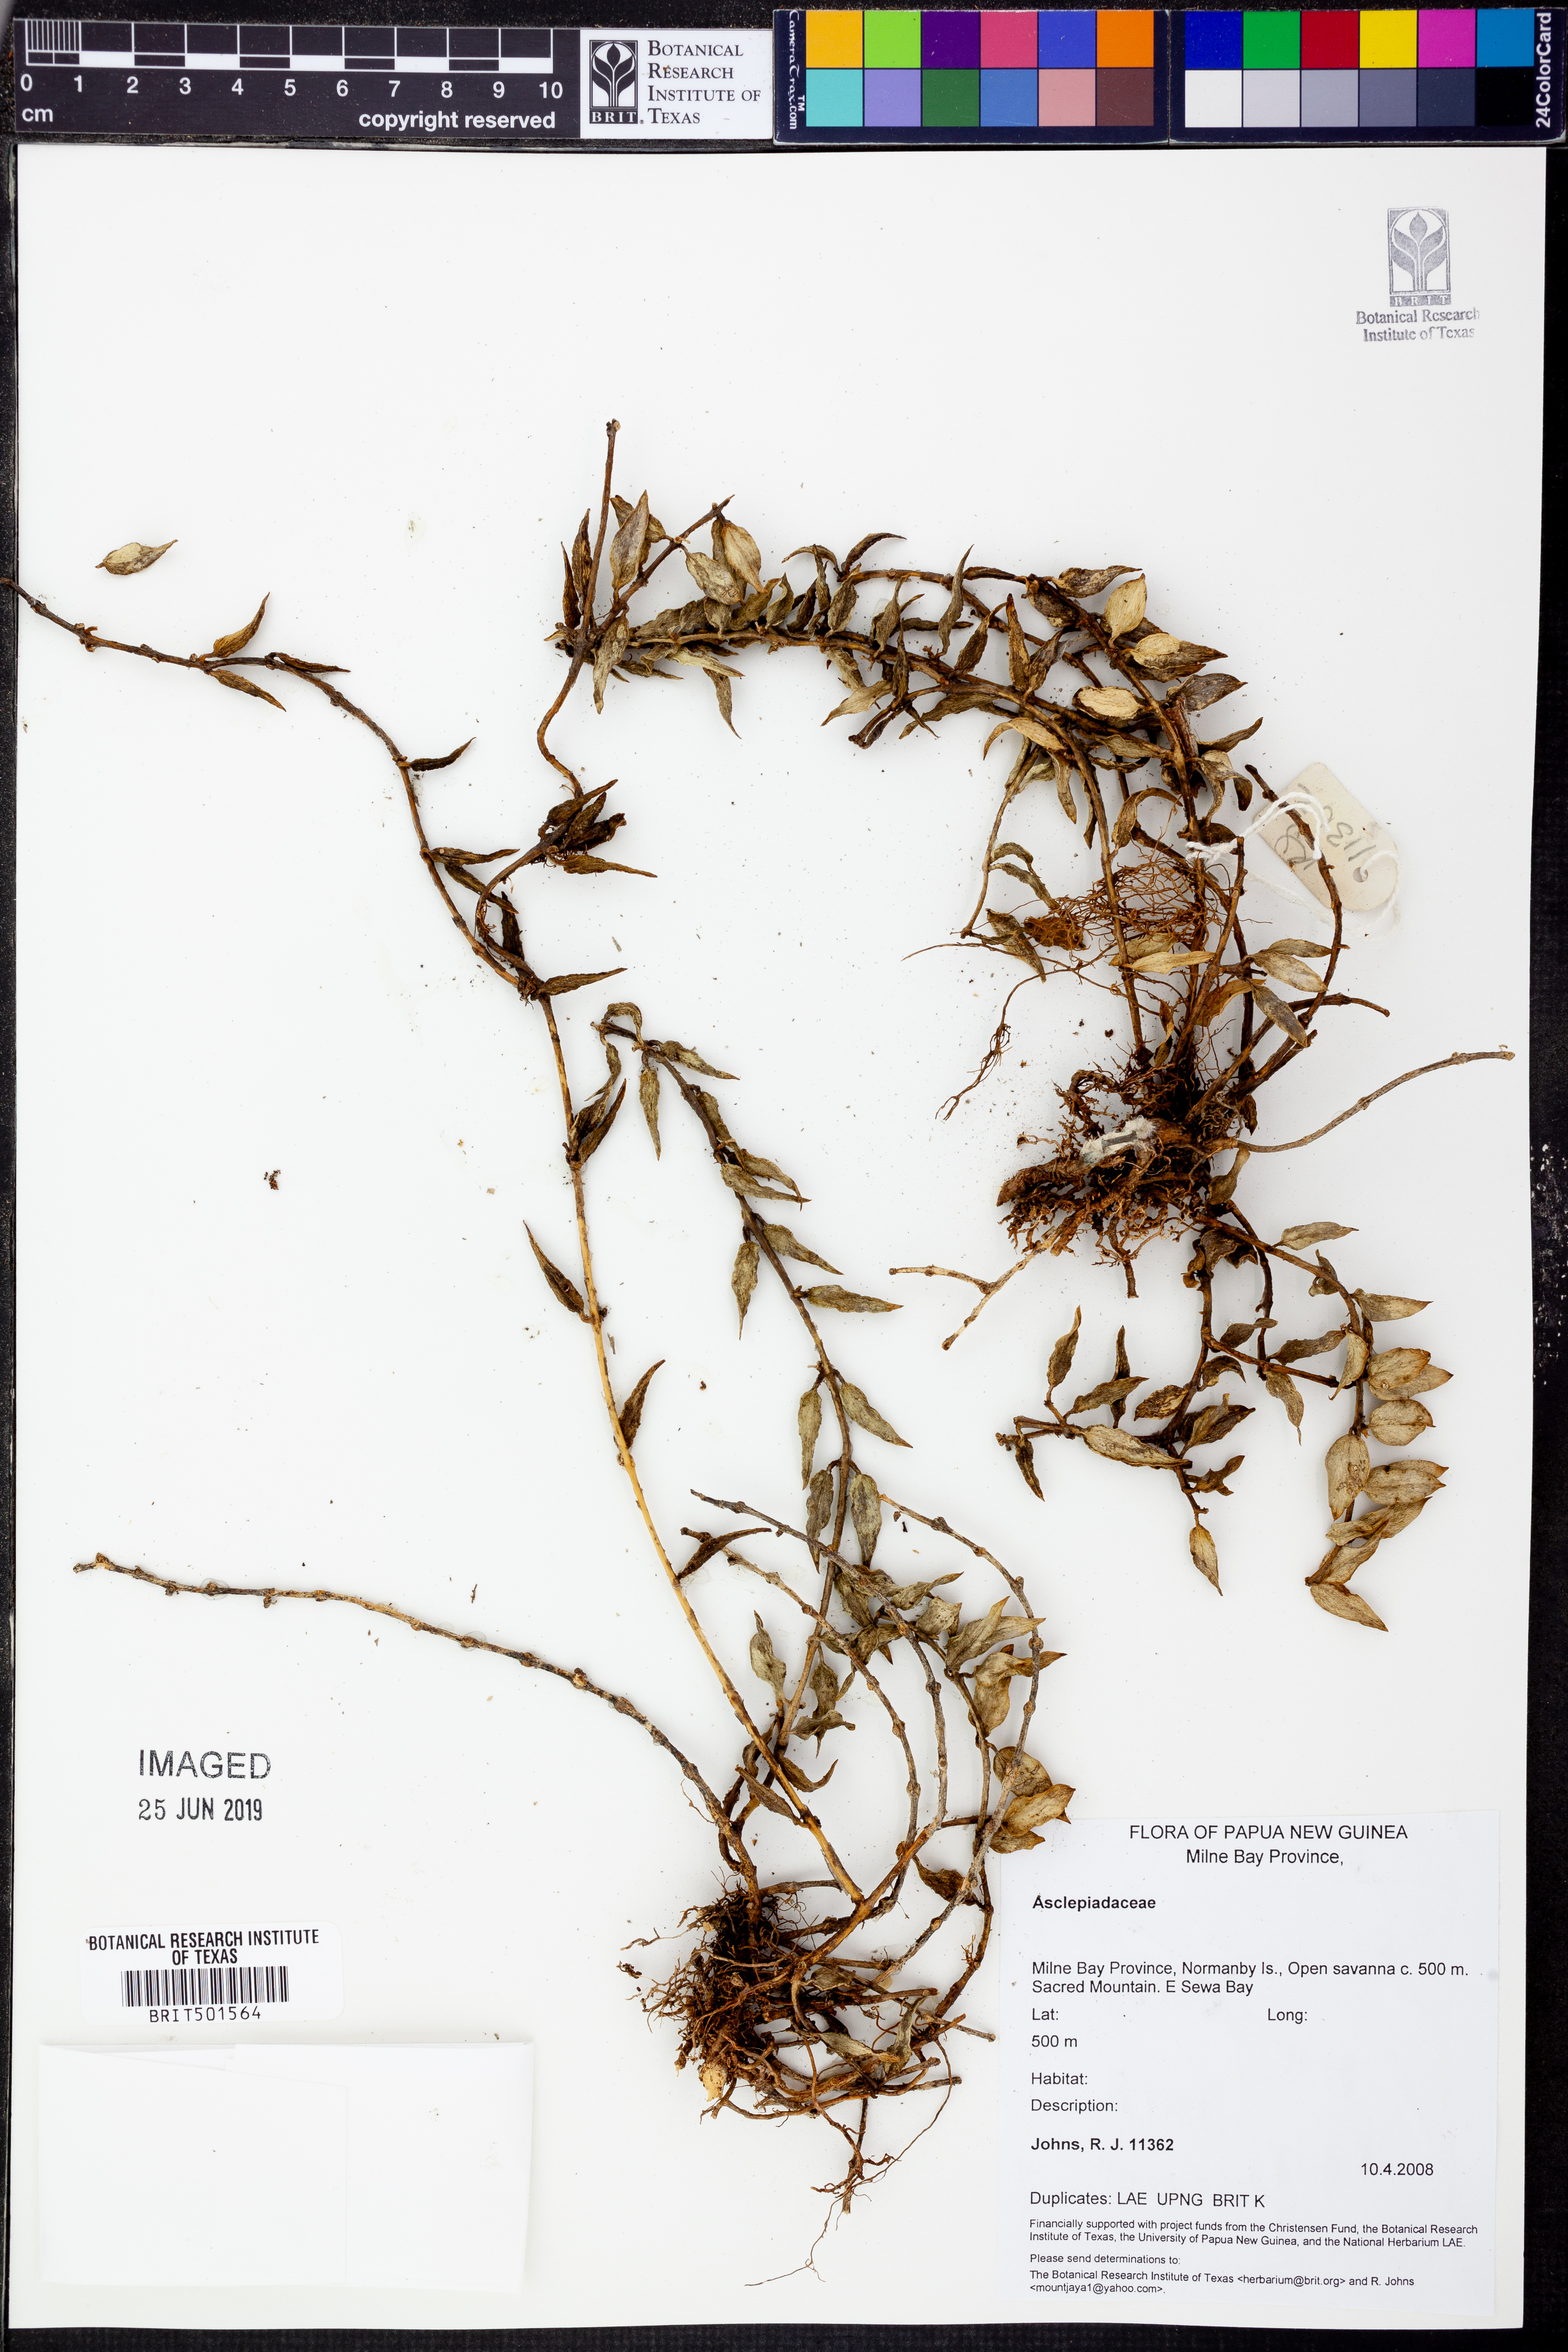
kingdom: Plantae
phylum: Tracheophyta
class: Magnoliopsida
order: Gentianales
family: Apocynaceae
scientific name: Apocynaceae
